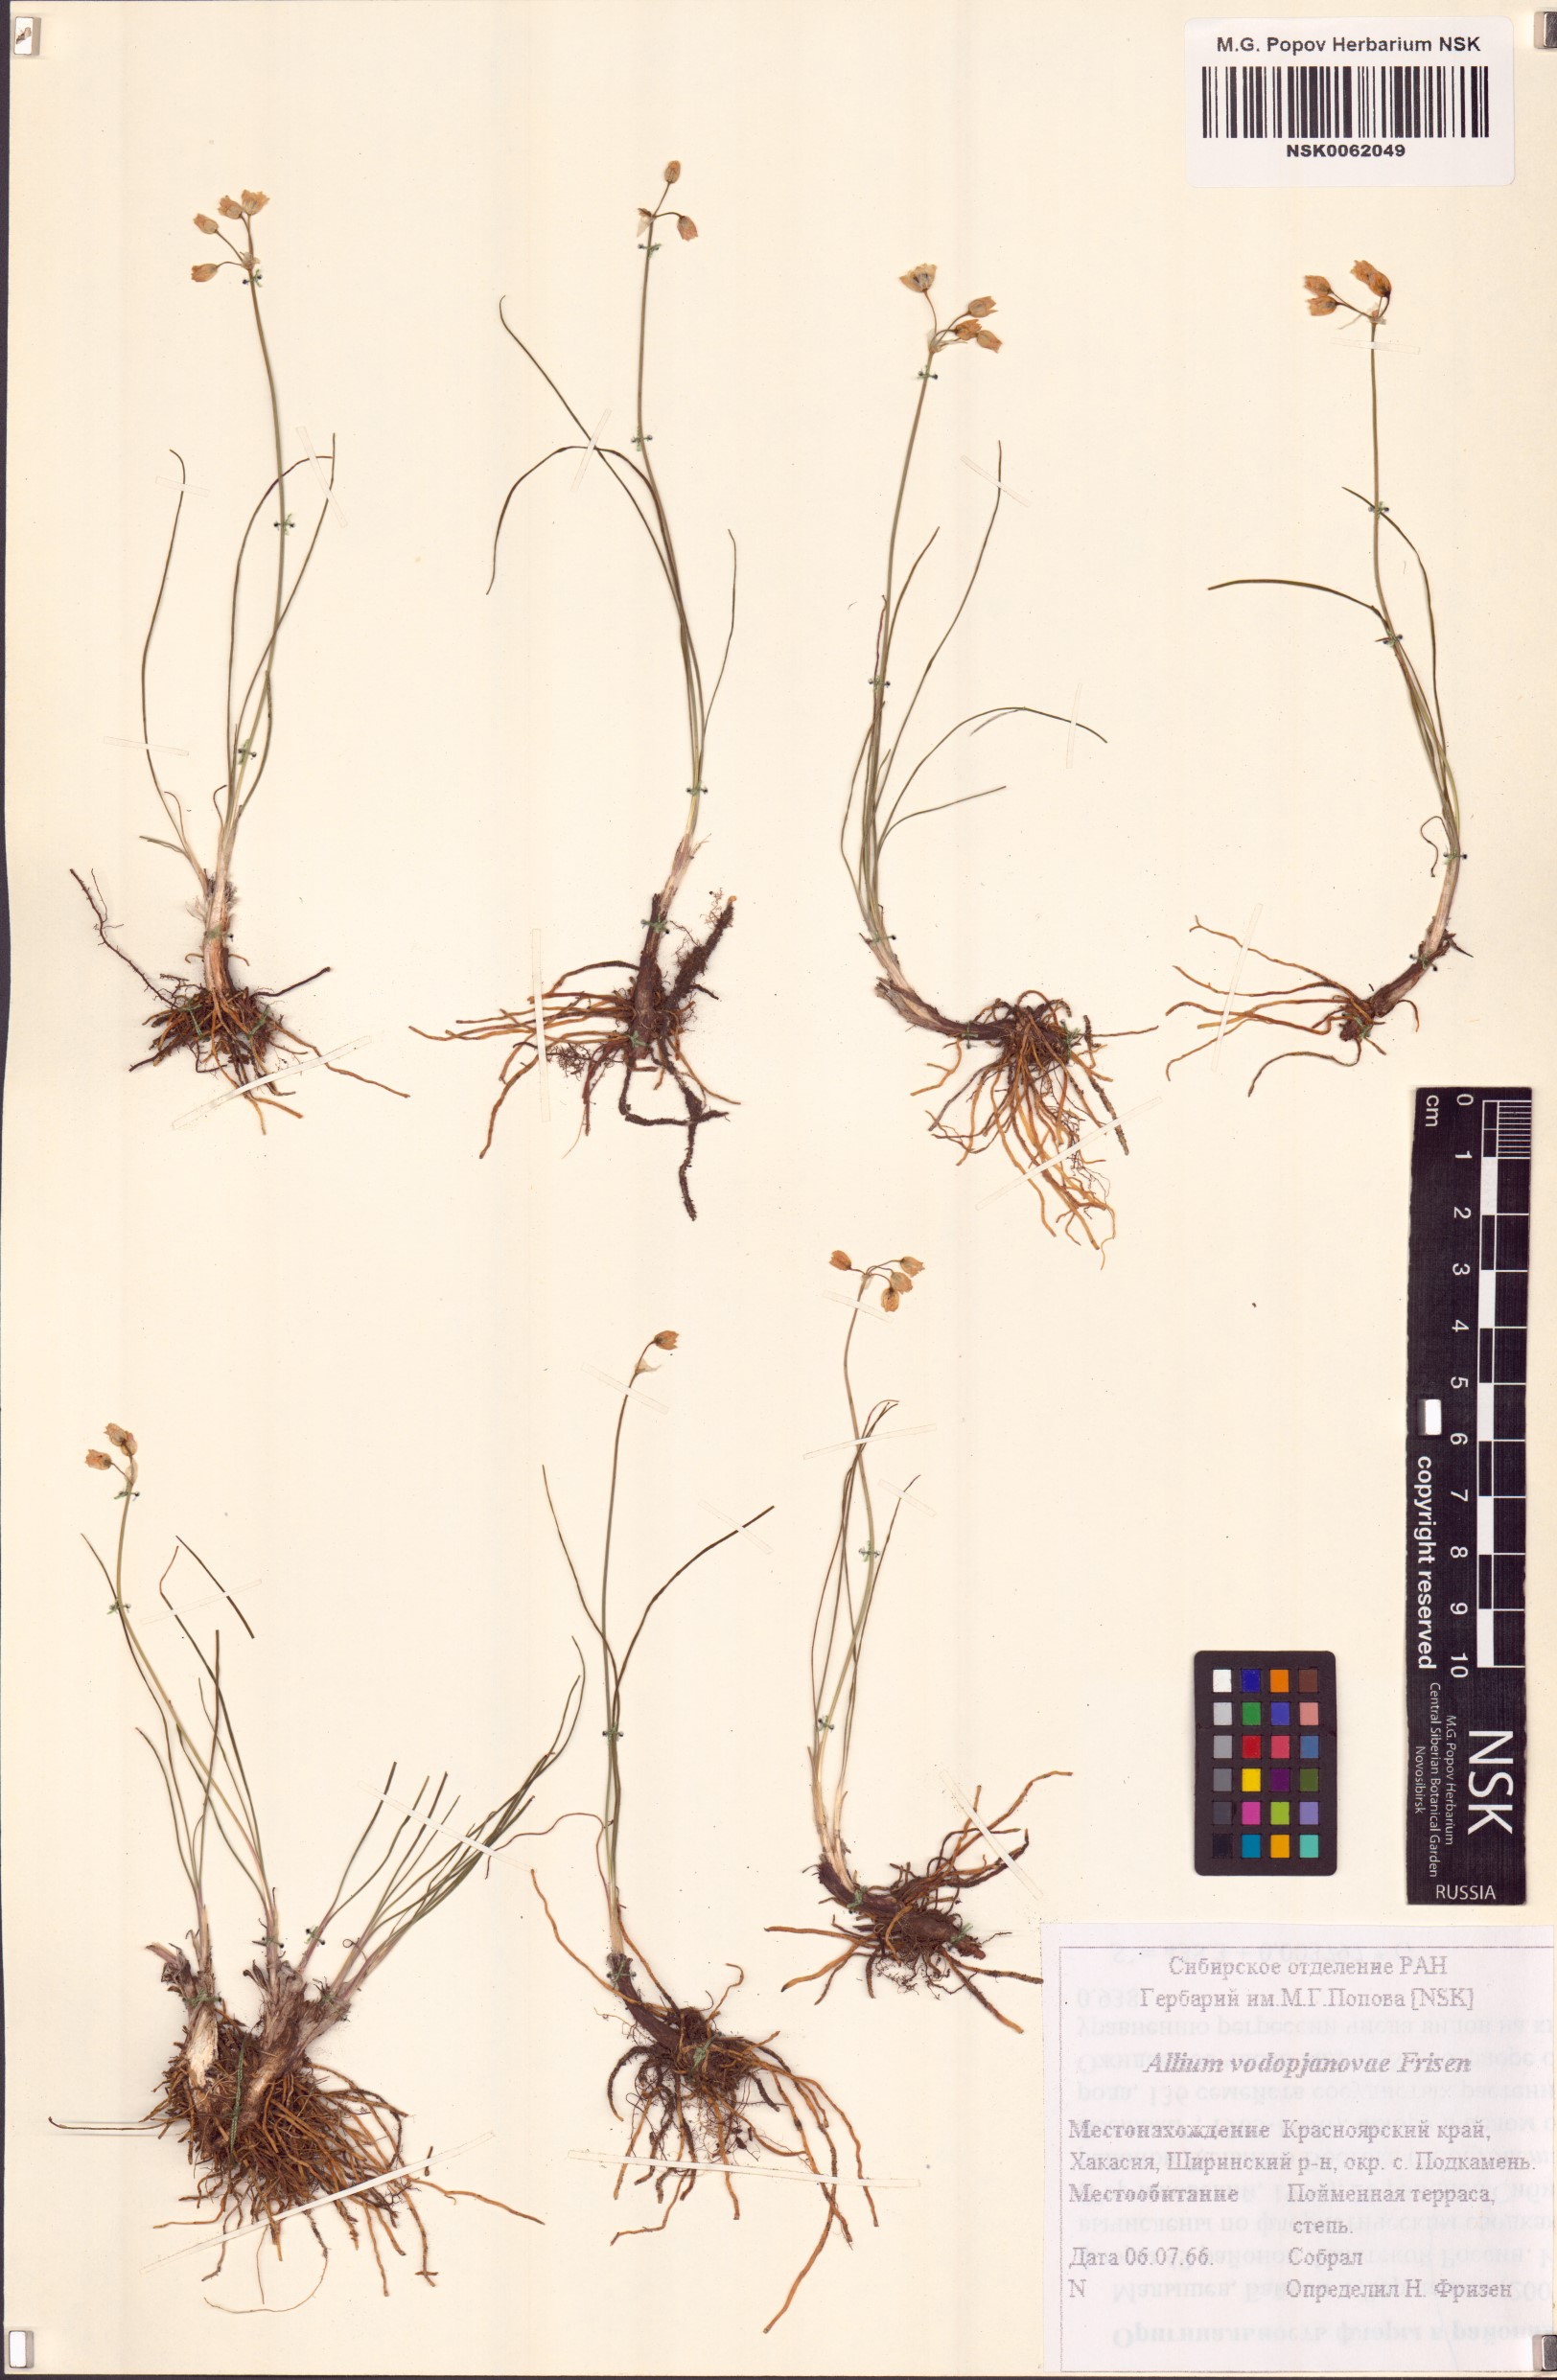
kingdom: Plantae
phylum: Tracheophyta
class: Liliopsida
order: Asparagales
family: Amaryllidaceae
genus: Allium
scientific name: Allium vodopjanovae
